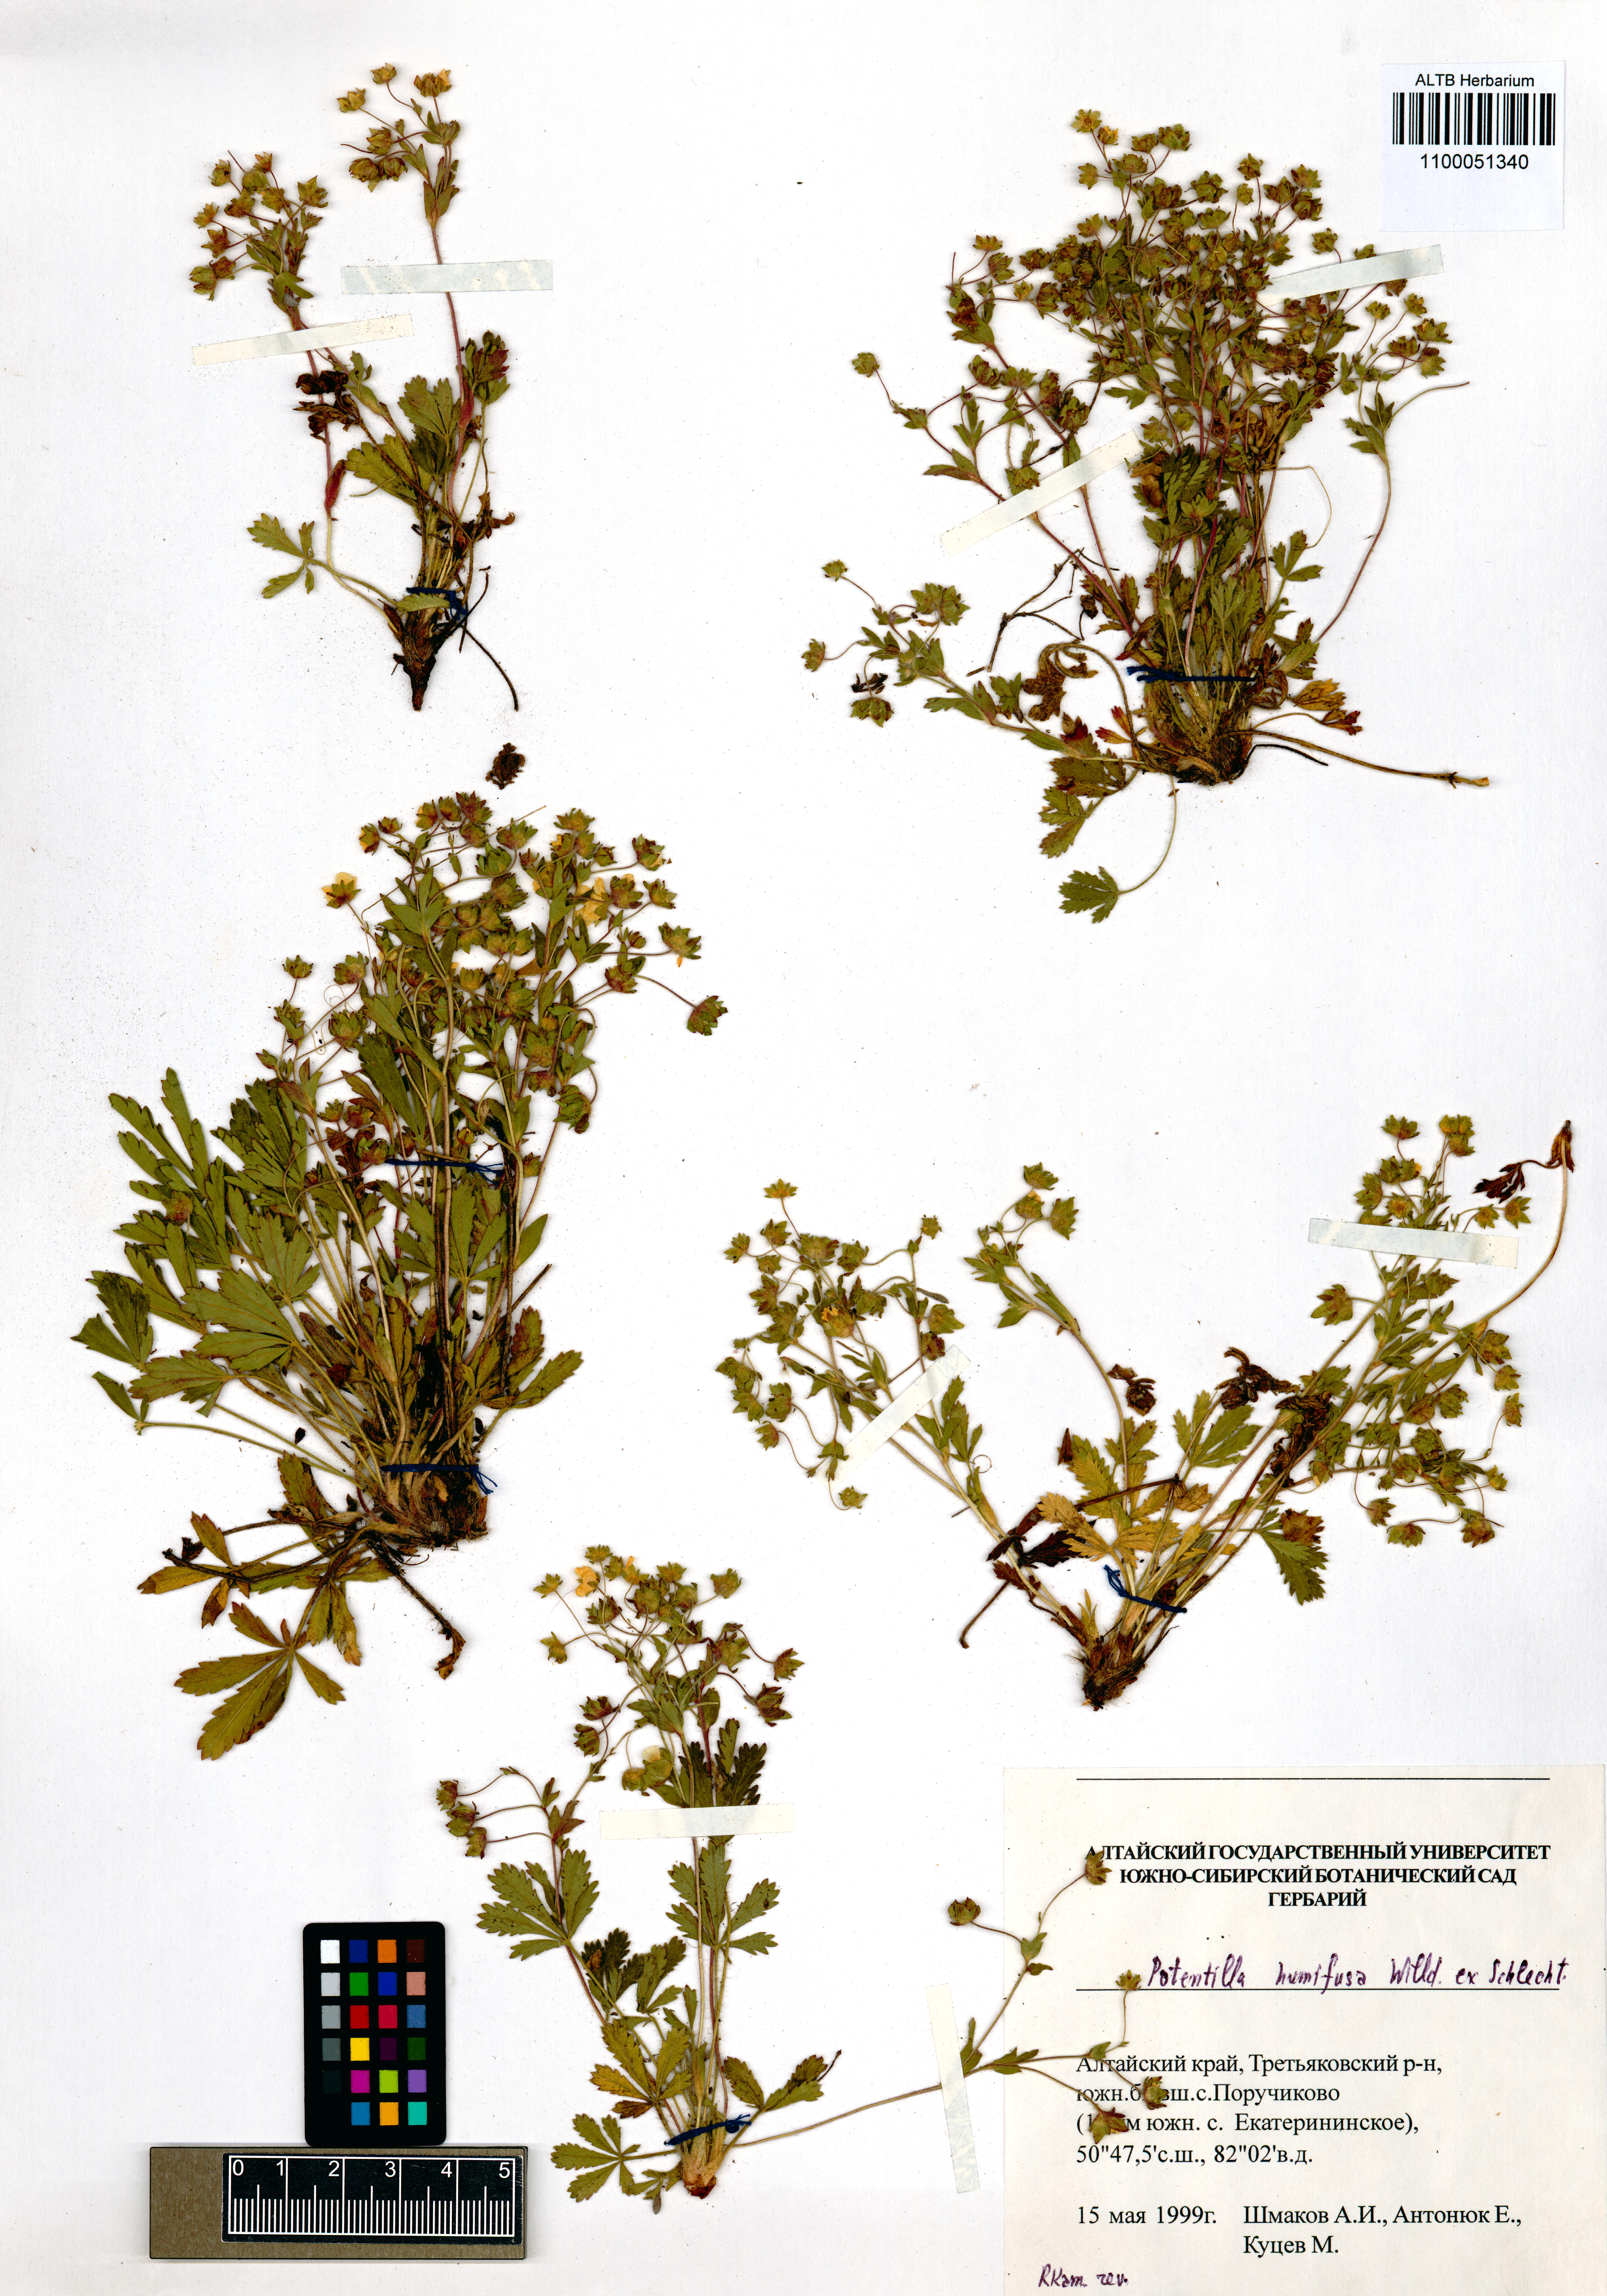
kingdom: Plantae
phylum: Tracheophyta
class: Magnoliopsida
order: Rosales
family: Rosaceae
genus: Potentilla
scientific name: Potentilla humifusa
